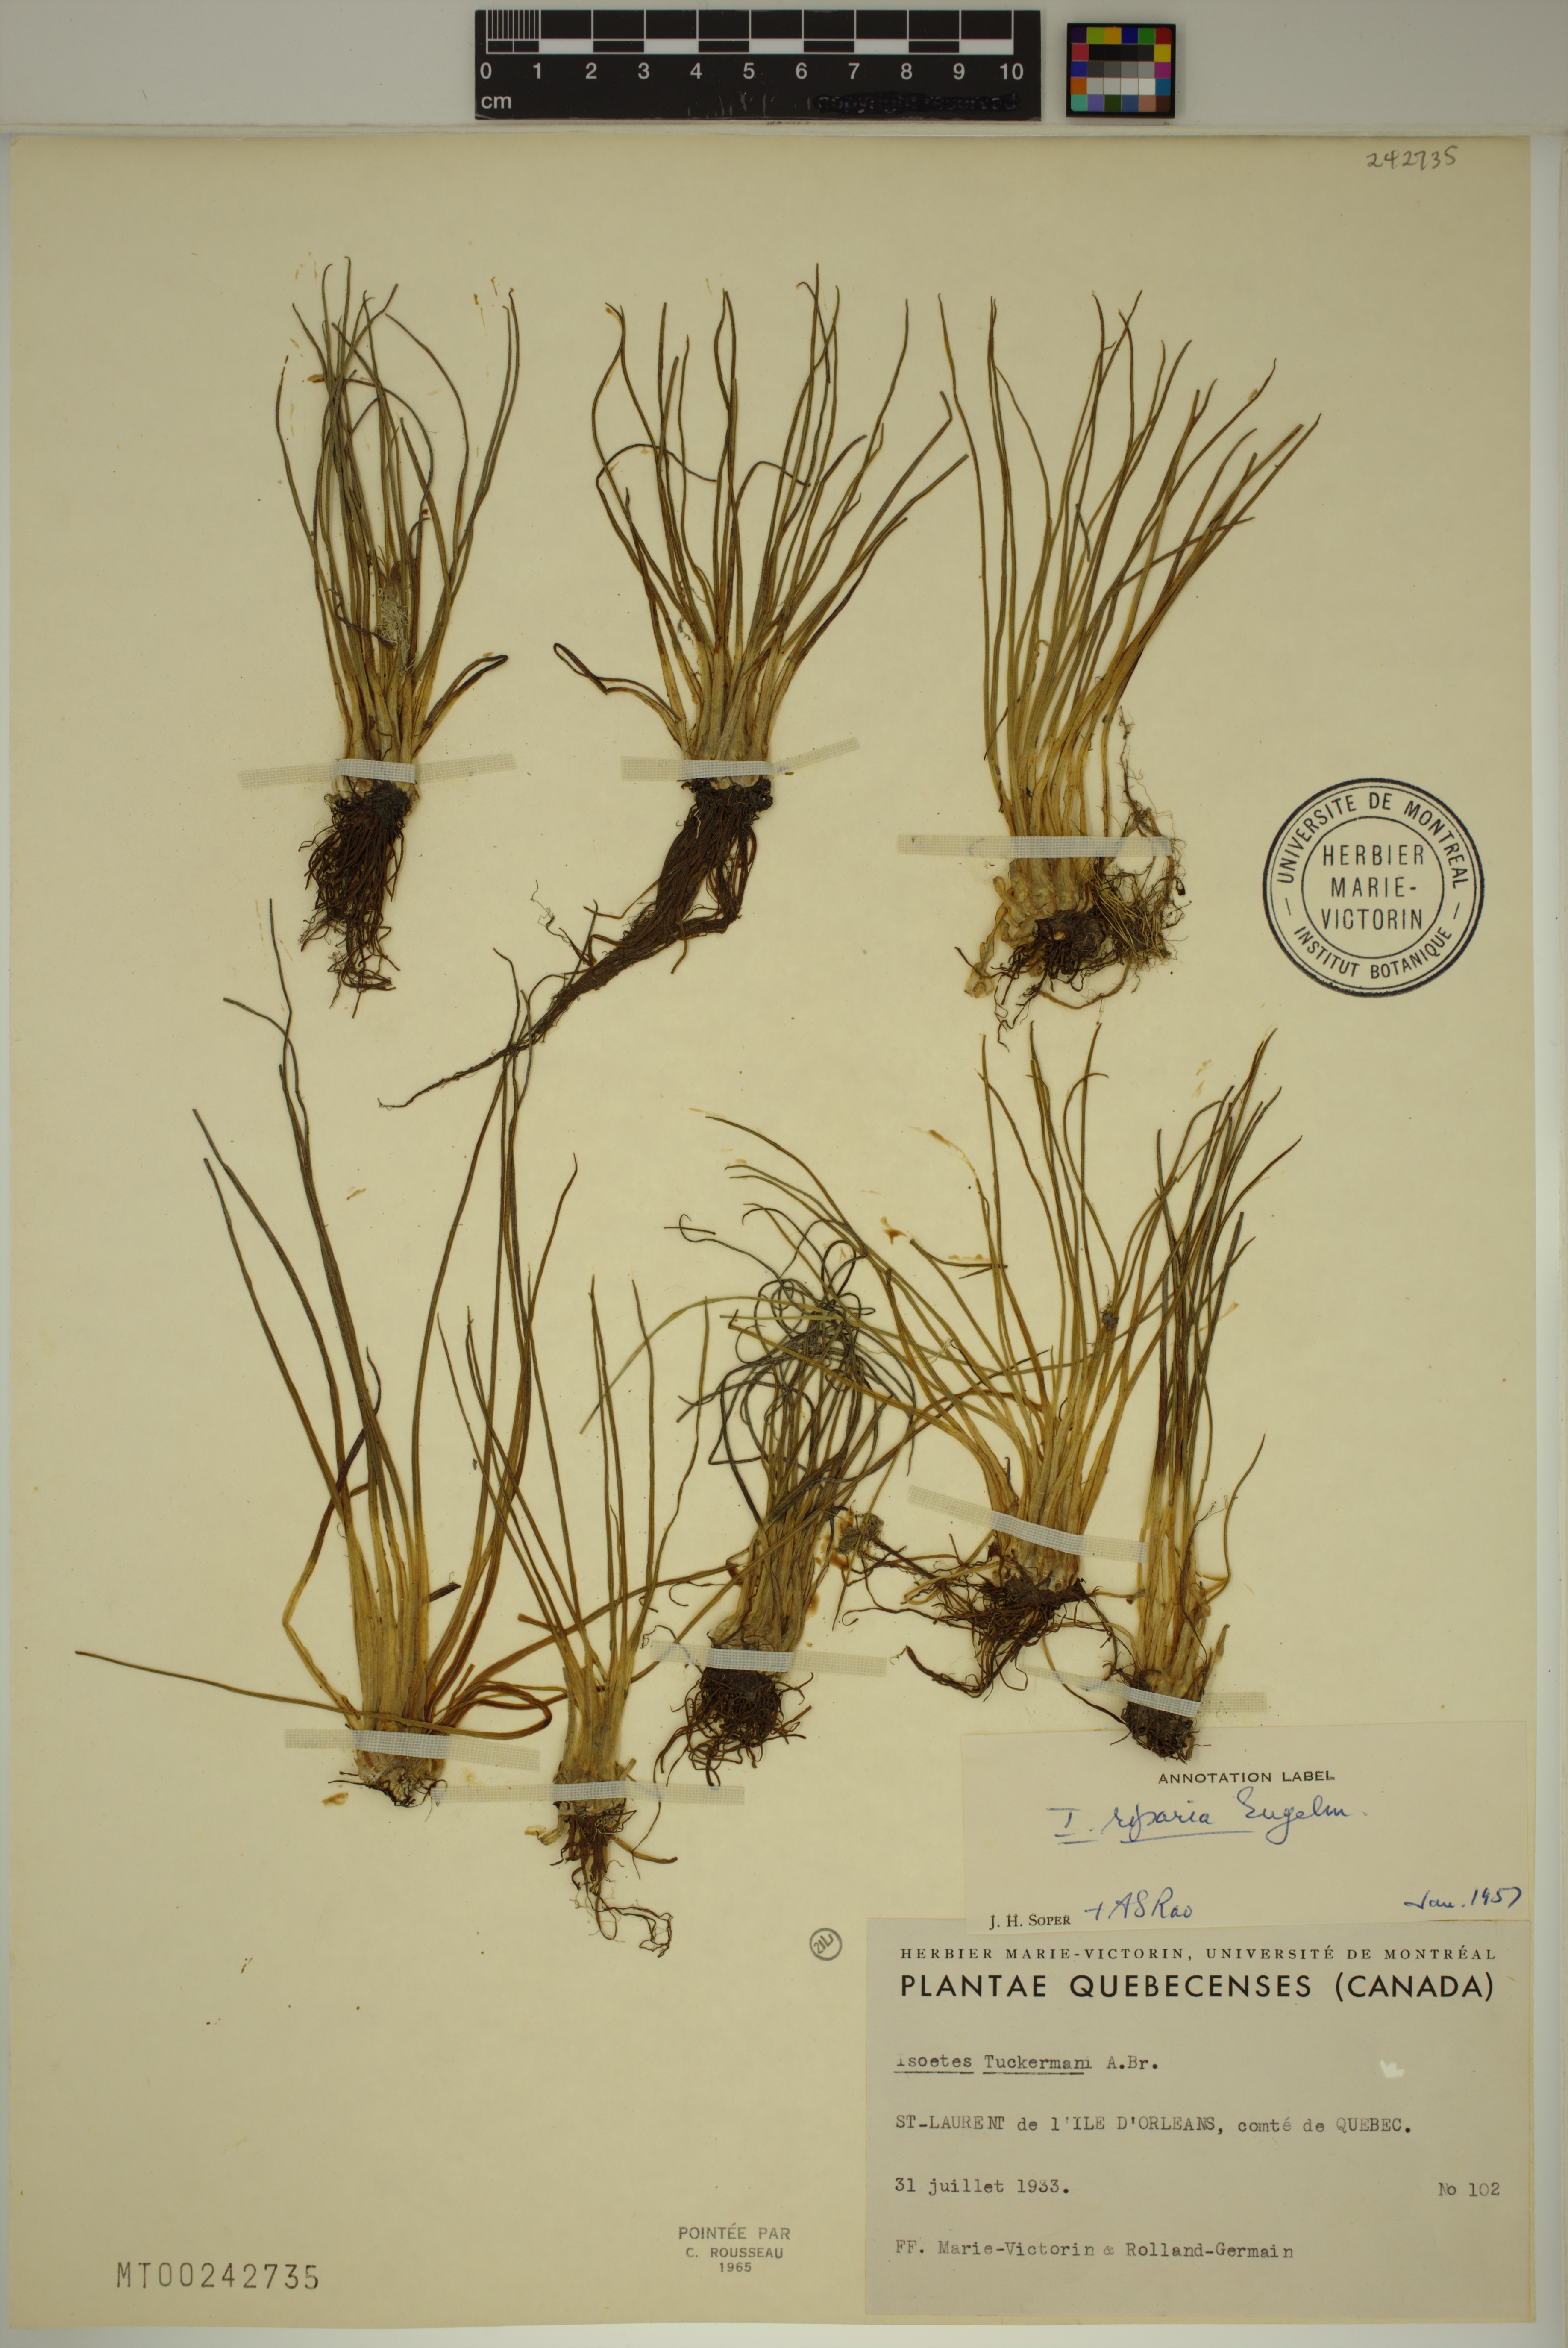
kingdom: Plantae
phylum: Tracheophyta
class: Lycopodiopsida
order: Isoetales
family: Isoetaceae
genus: Isoetes
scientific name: Isoetes laurentiana
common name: St. lawrence quillwort
